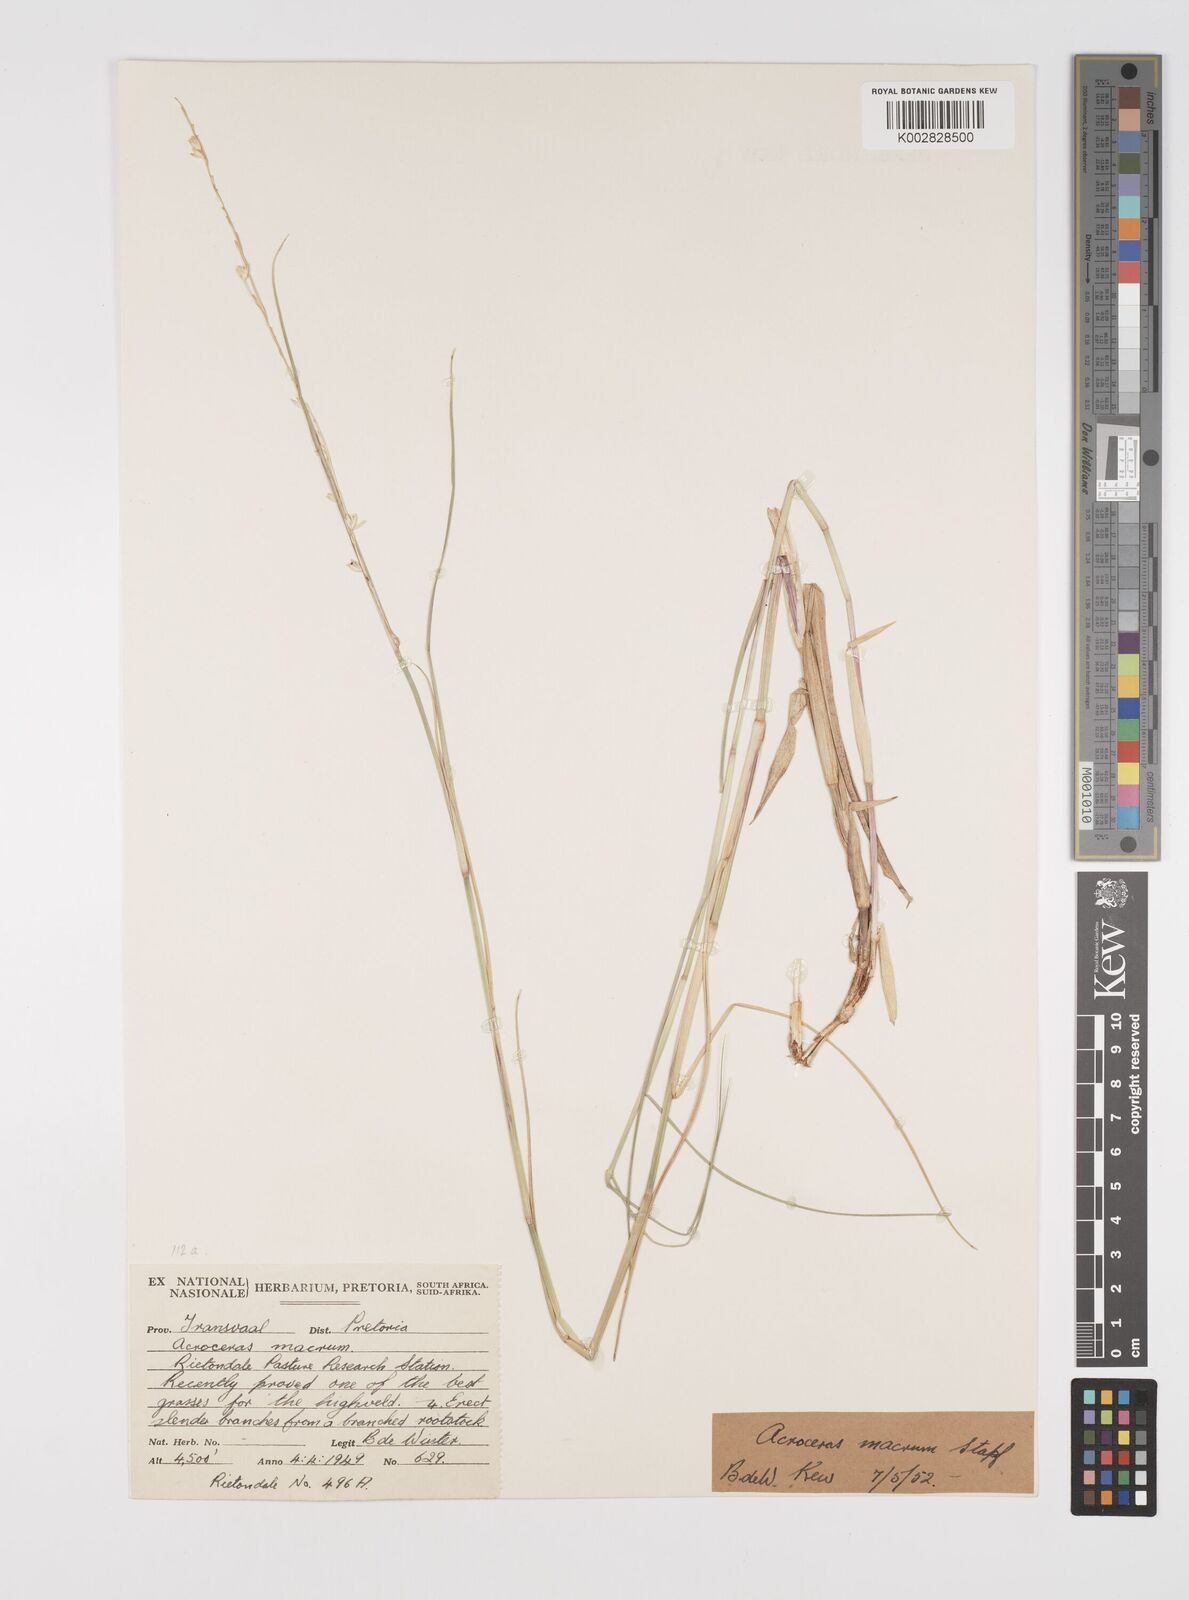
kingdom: Plantae
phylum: Tracheophyta
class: Liliopsida
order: Poales
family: Poaceae
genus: Acroceras
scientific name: Acroceras macrum
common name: Nyl grass
